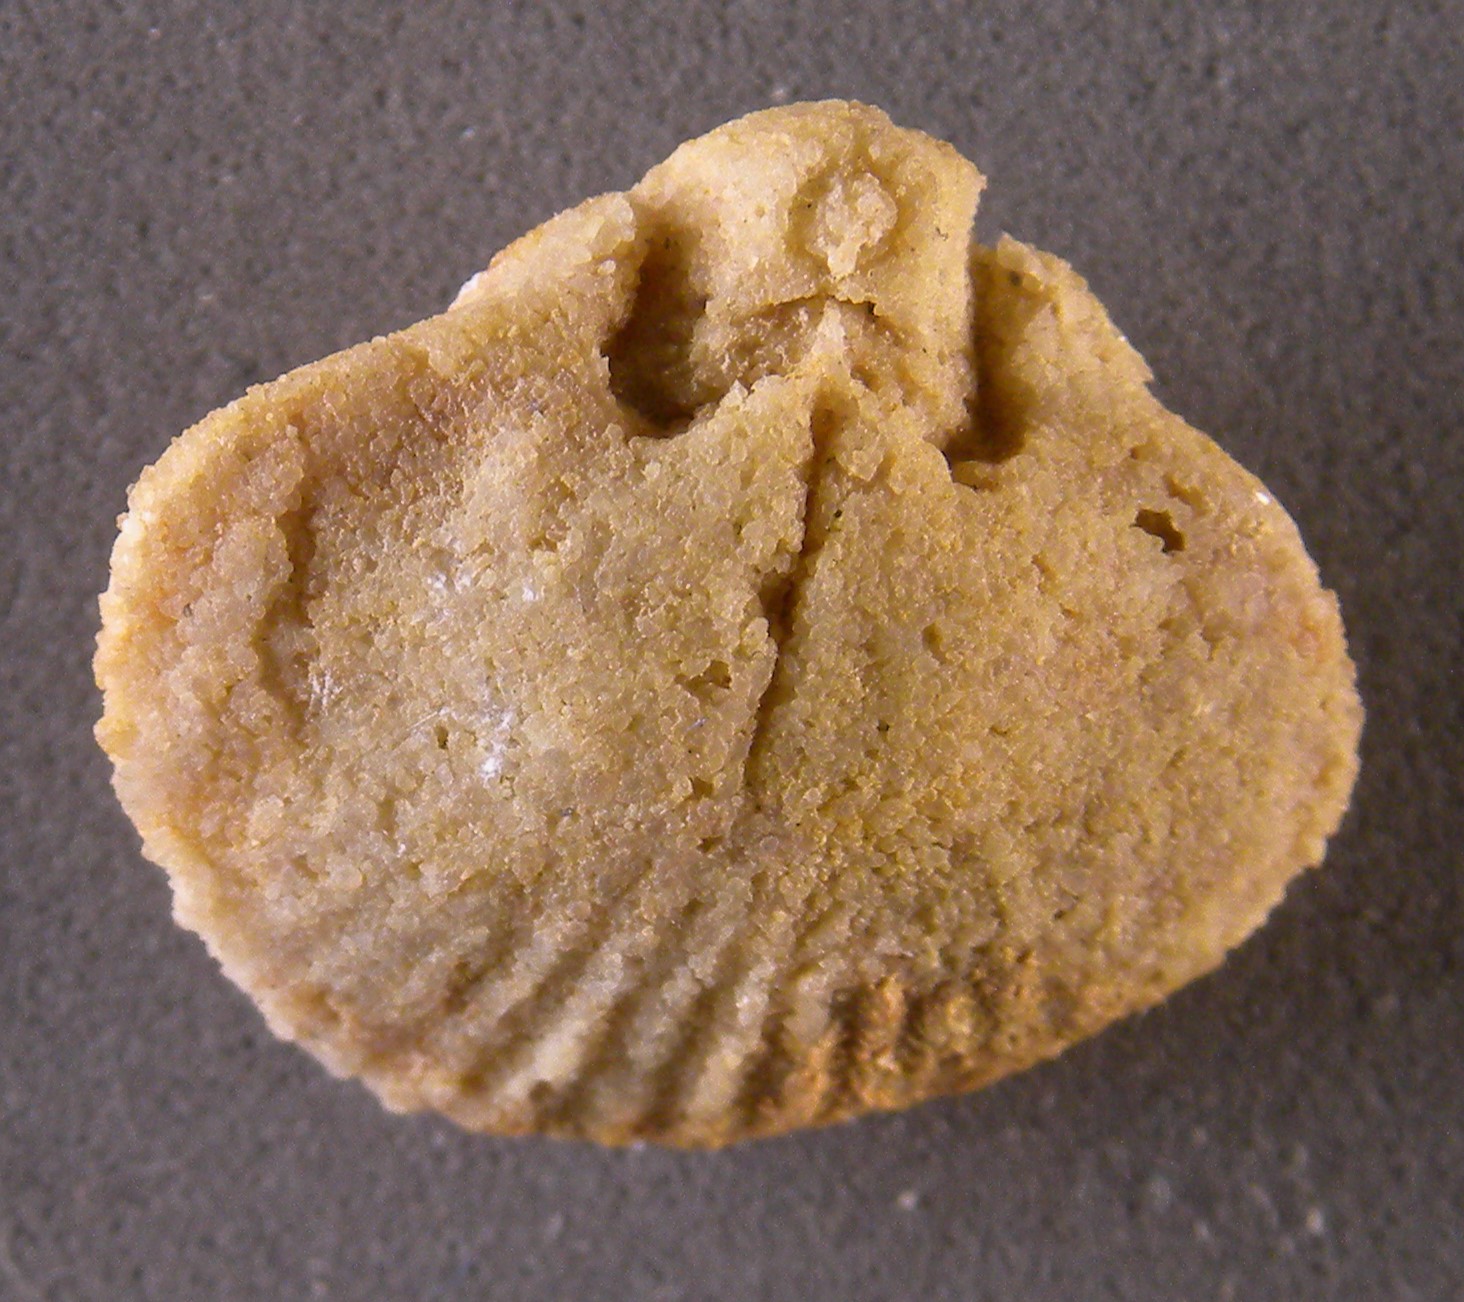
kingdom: Animalia
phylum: Brachiopoda
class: Rhynchonellata
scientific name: Rhynchonellata
